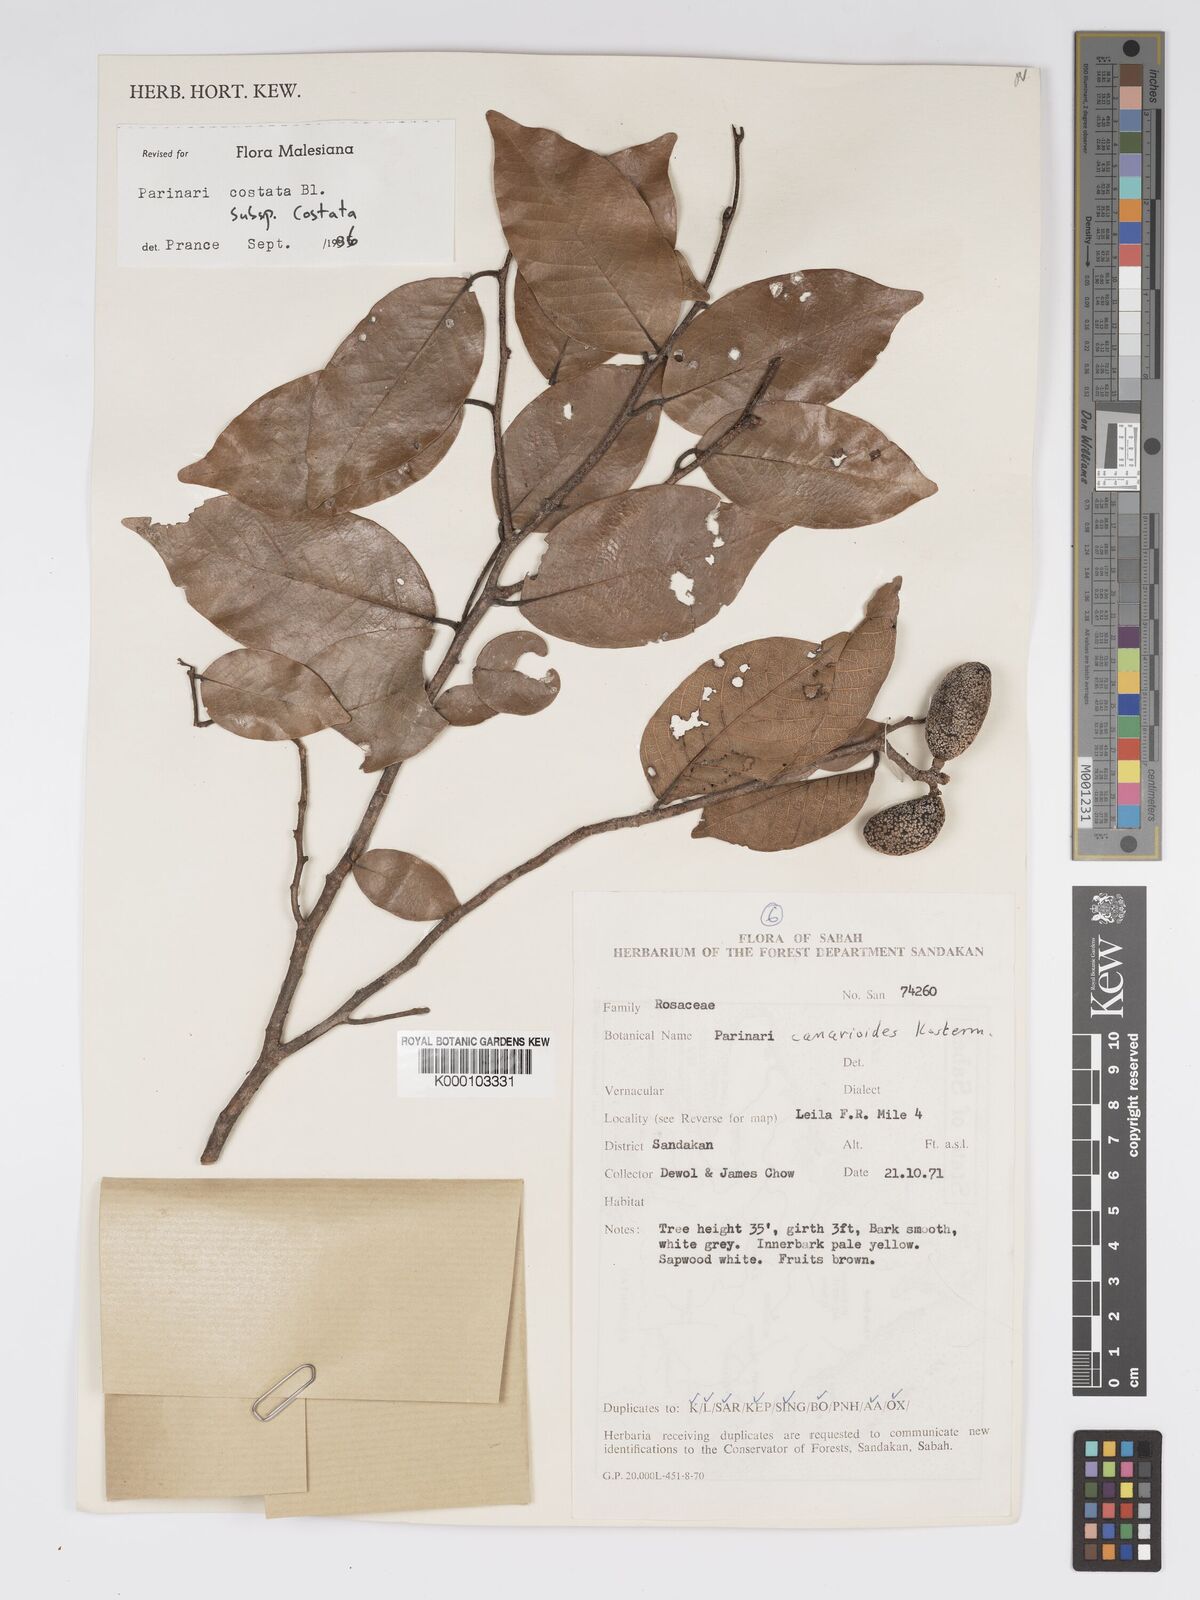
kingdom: Plantae
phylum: Tracheophyta
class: Magnoliopsida
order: Malpighiales
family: Chrysobalanaceae
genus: Parinari
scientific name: Parinari costata
